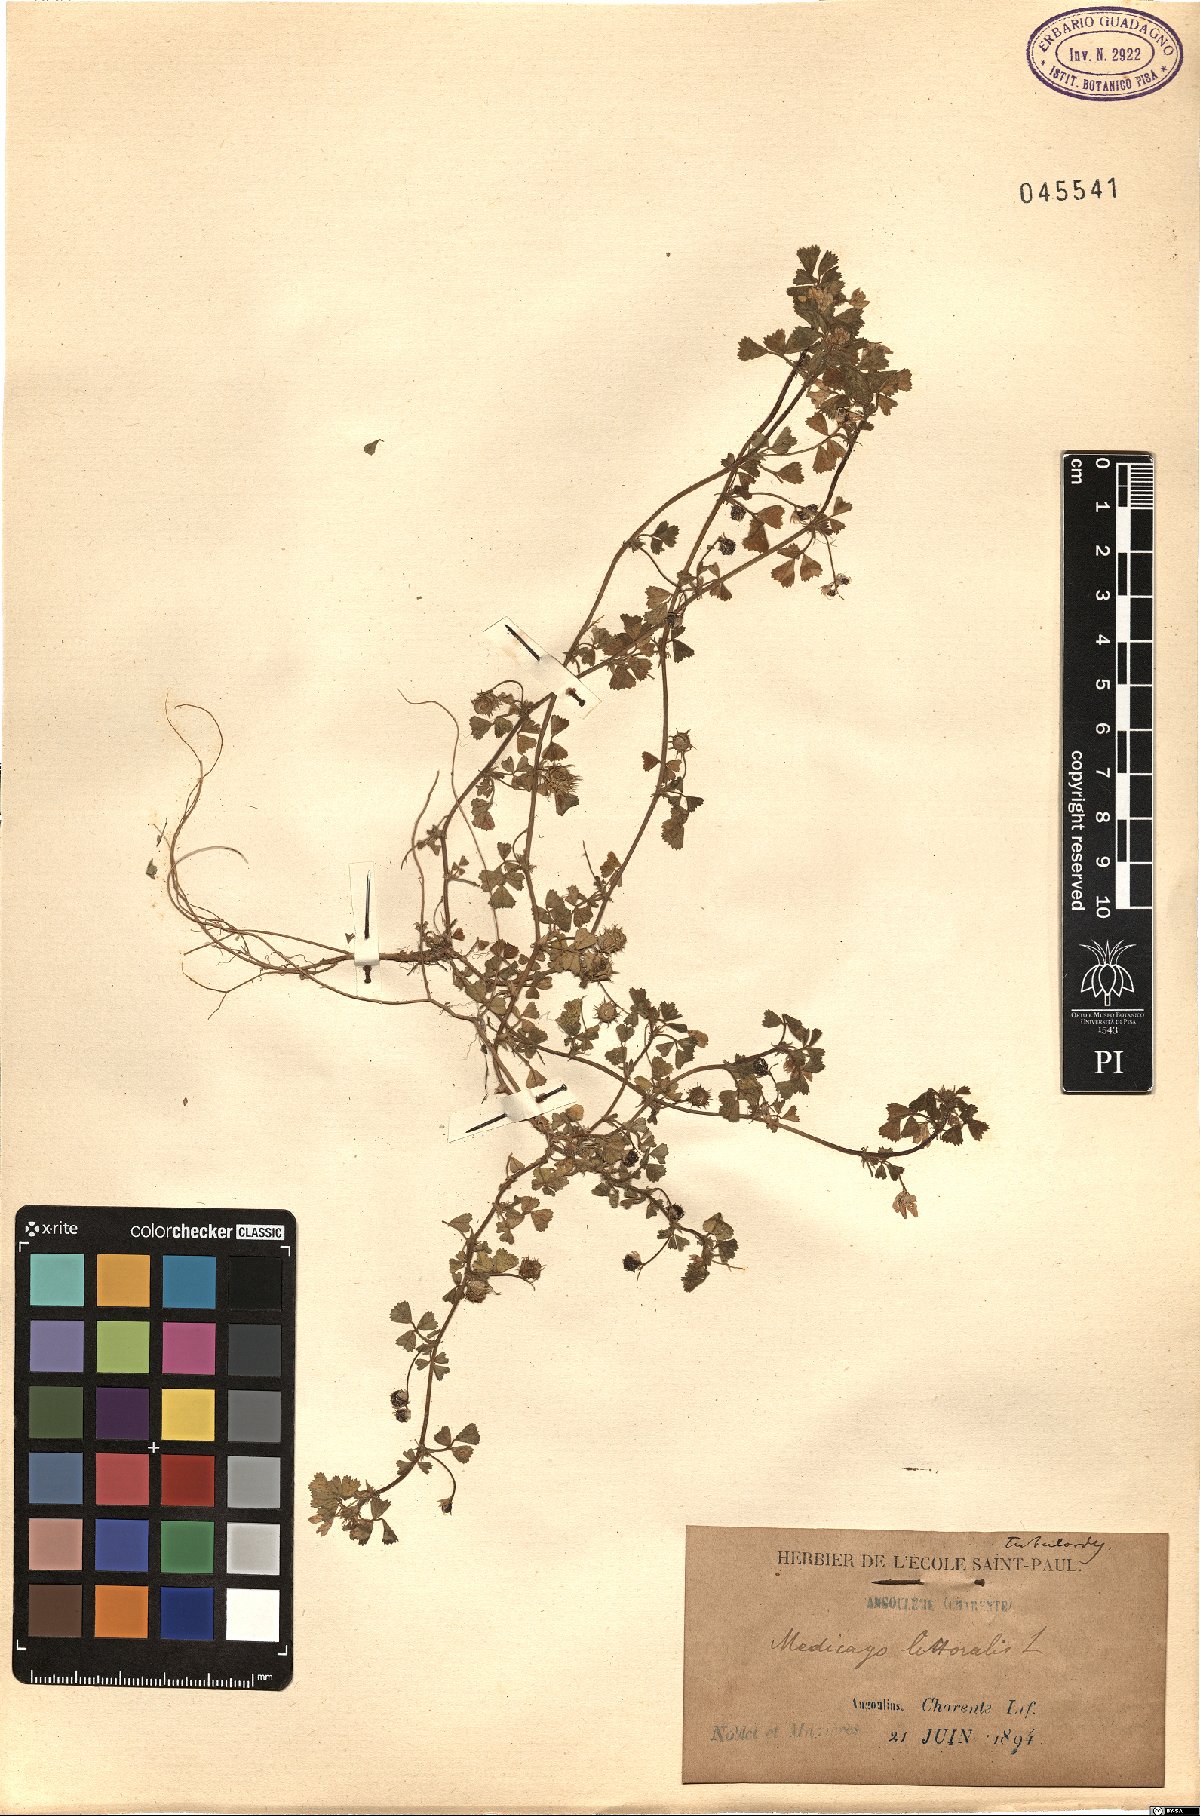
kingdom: Plantae
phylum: Tracheophyta
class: Magnoliopsida
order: Fabales
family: Fabaceae
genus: Medicago
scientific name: Medicago littoralis
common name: Shore medick
